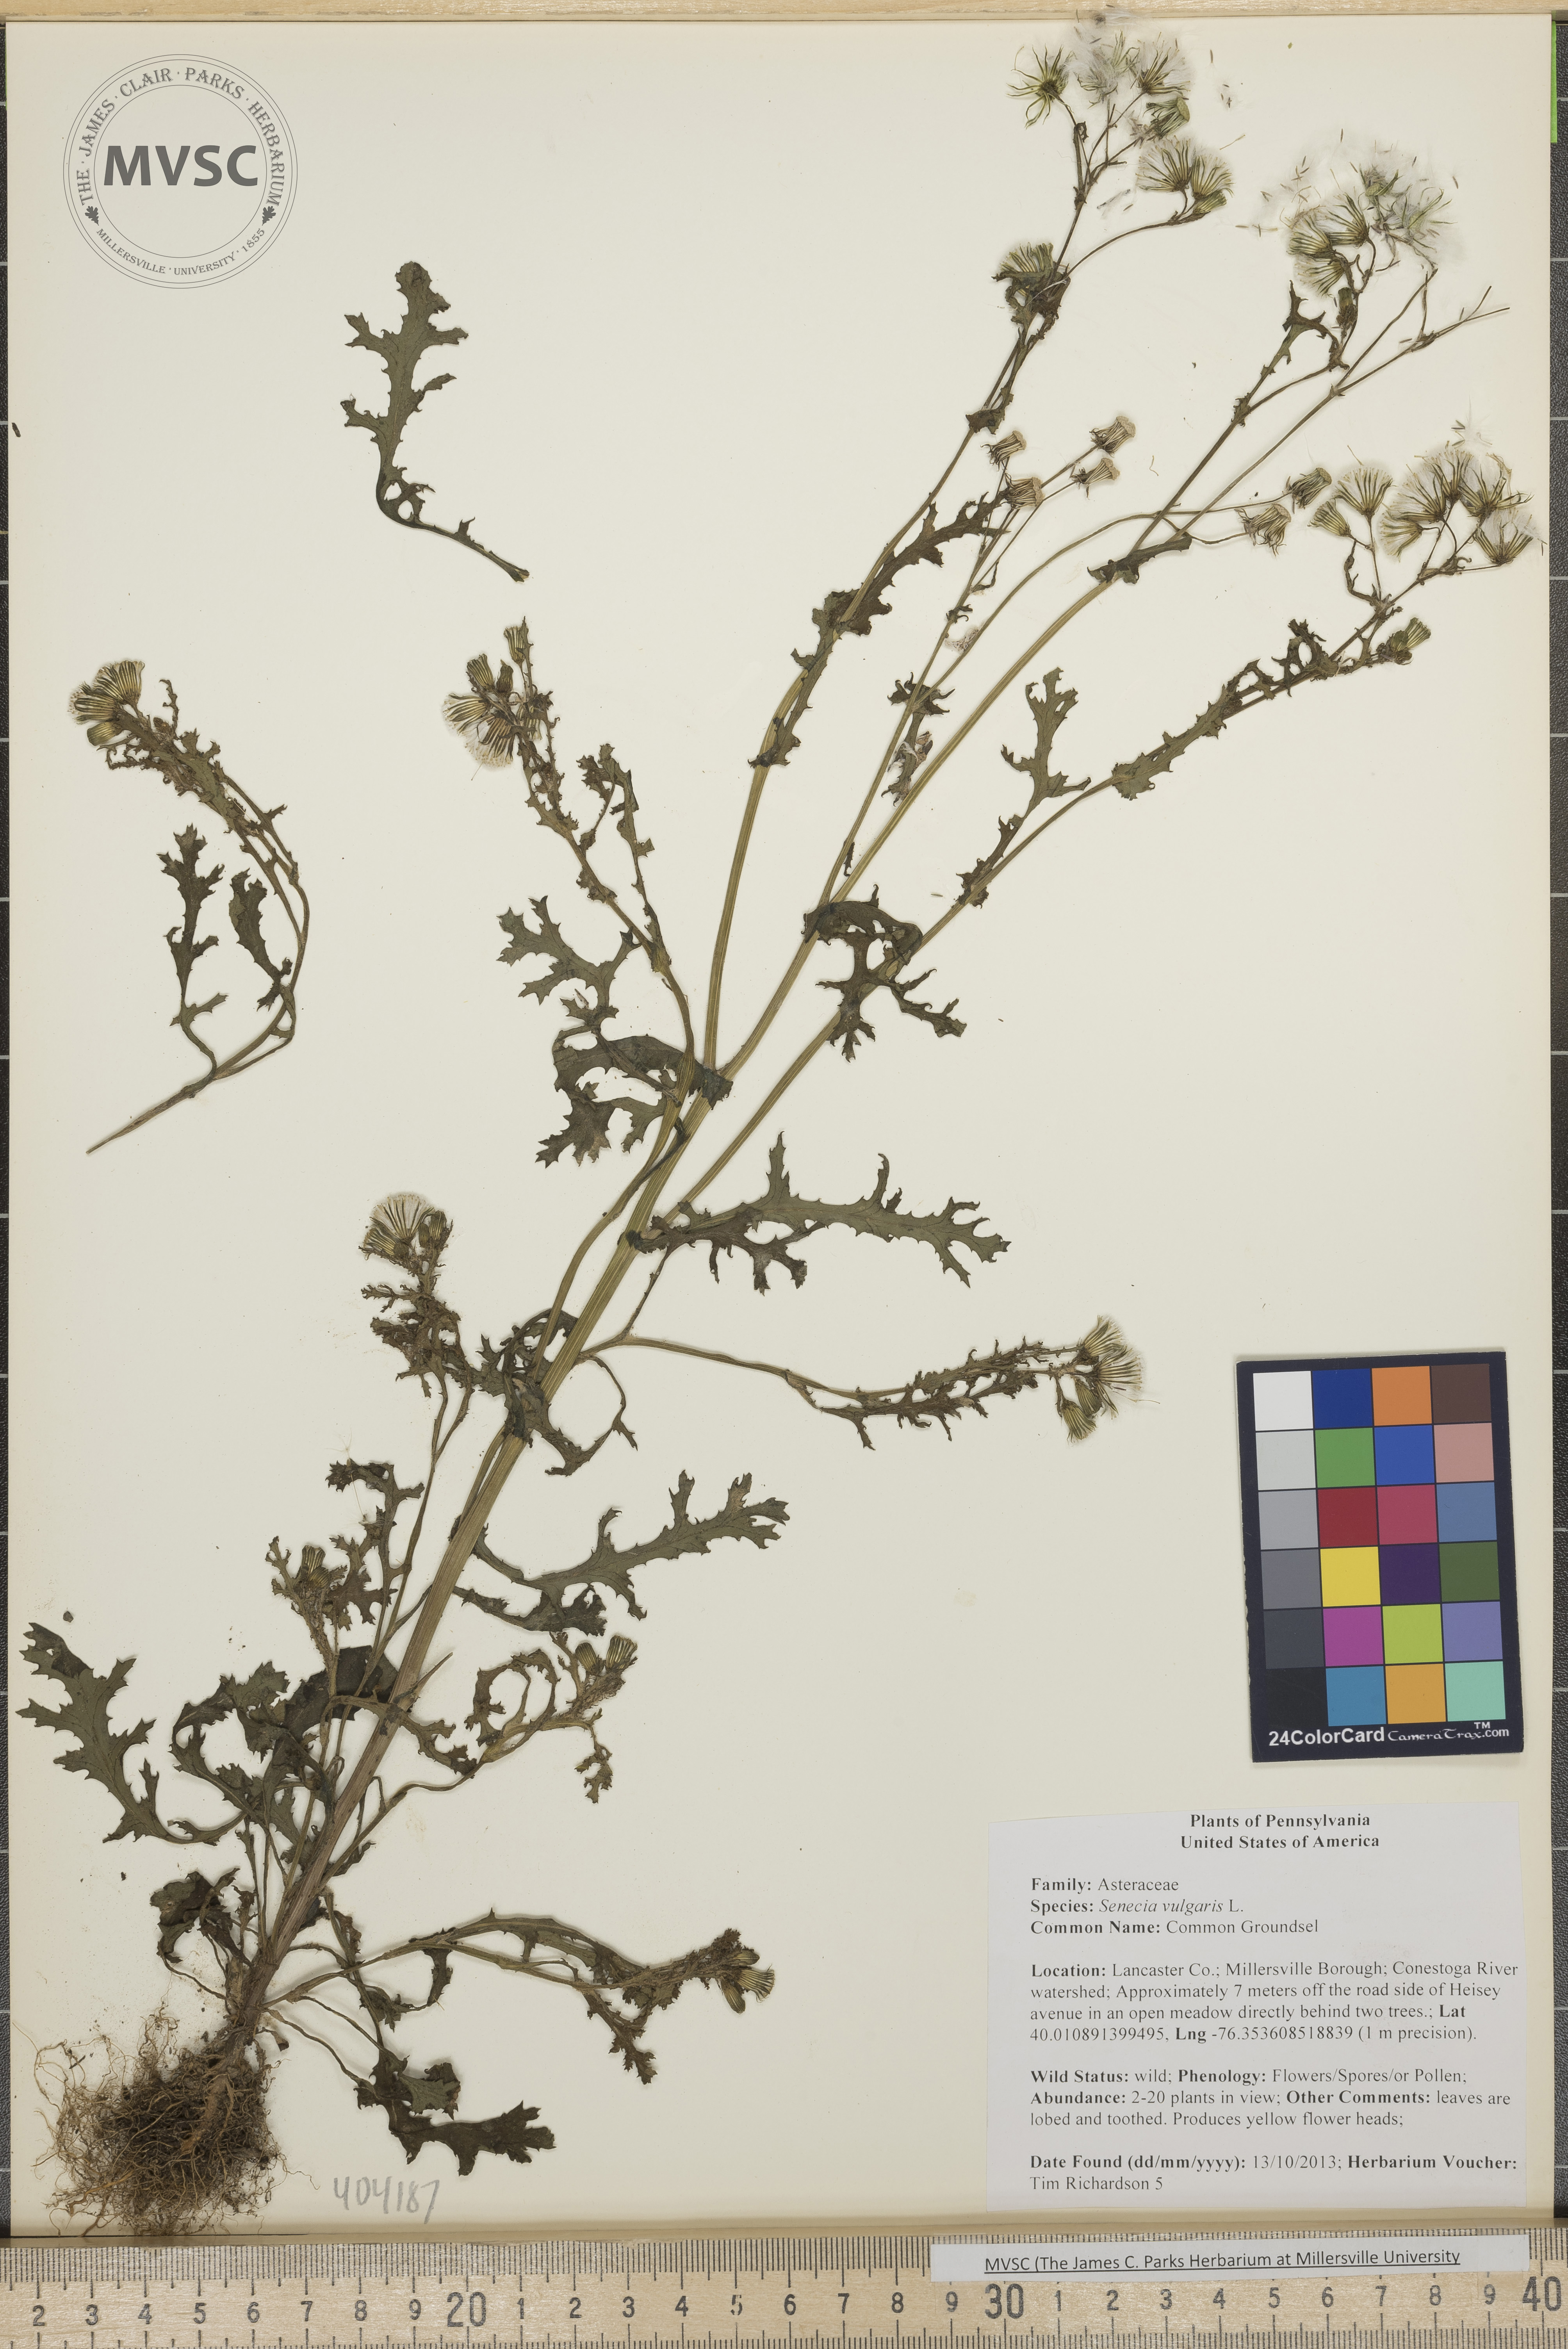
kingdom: Plantae
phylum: Tracheophyta
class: Magnoliopsida
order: Asterales
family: Asteraceae
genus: Senecio
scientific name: Senecio vulgaris
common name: Common Groundsel
